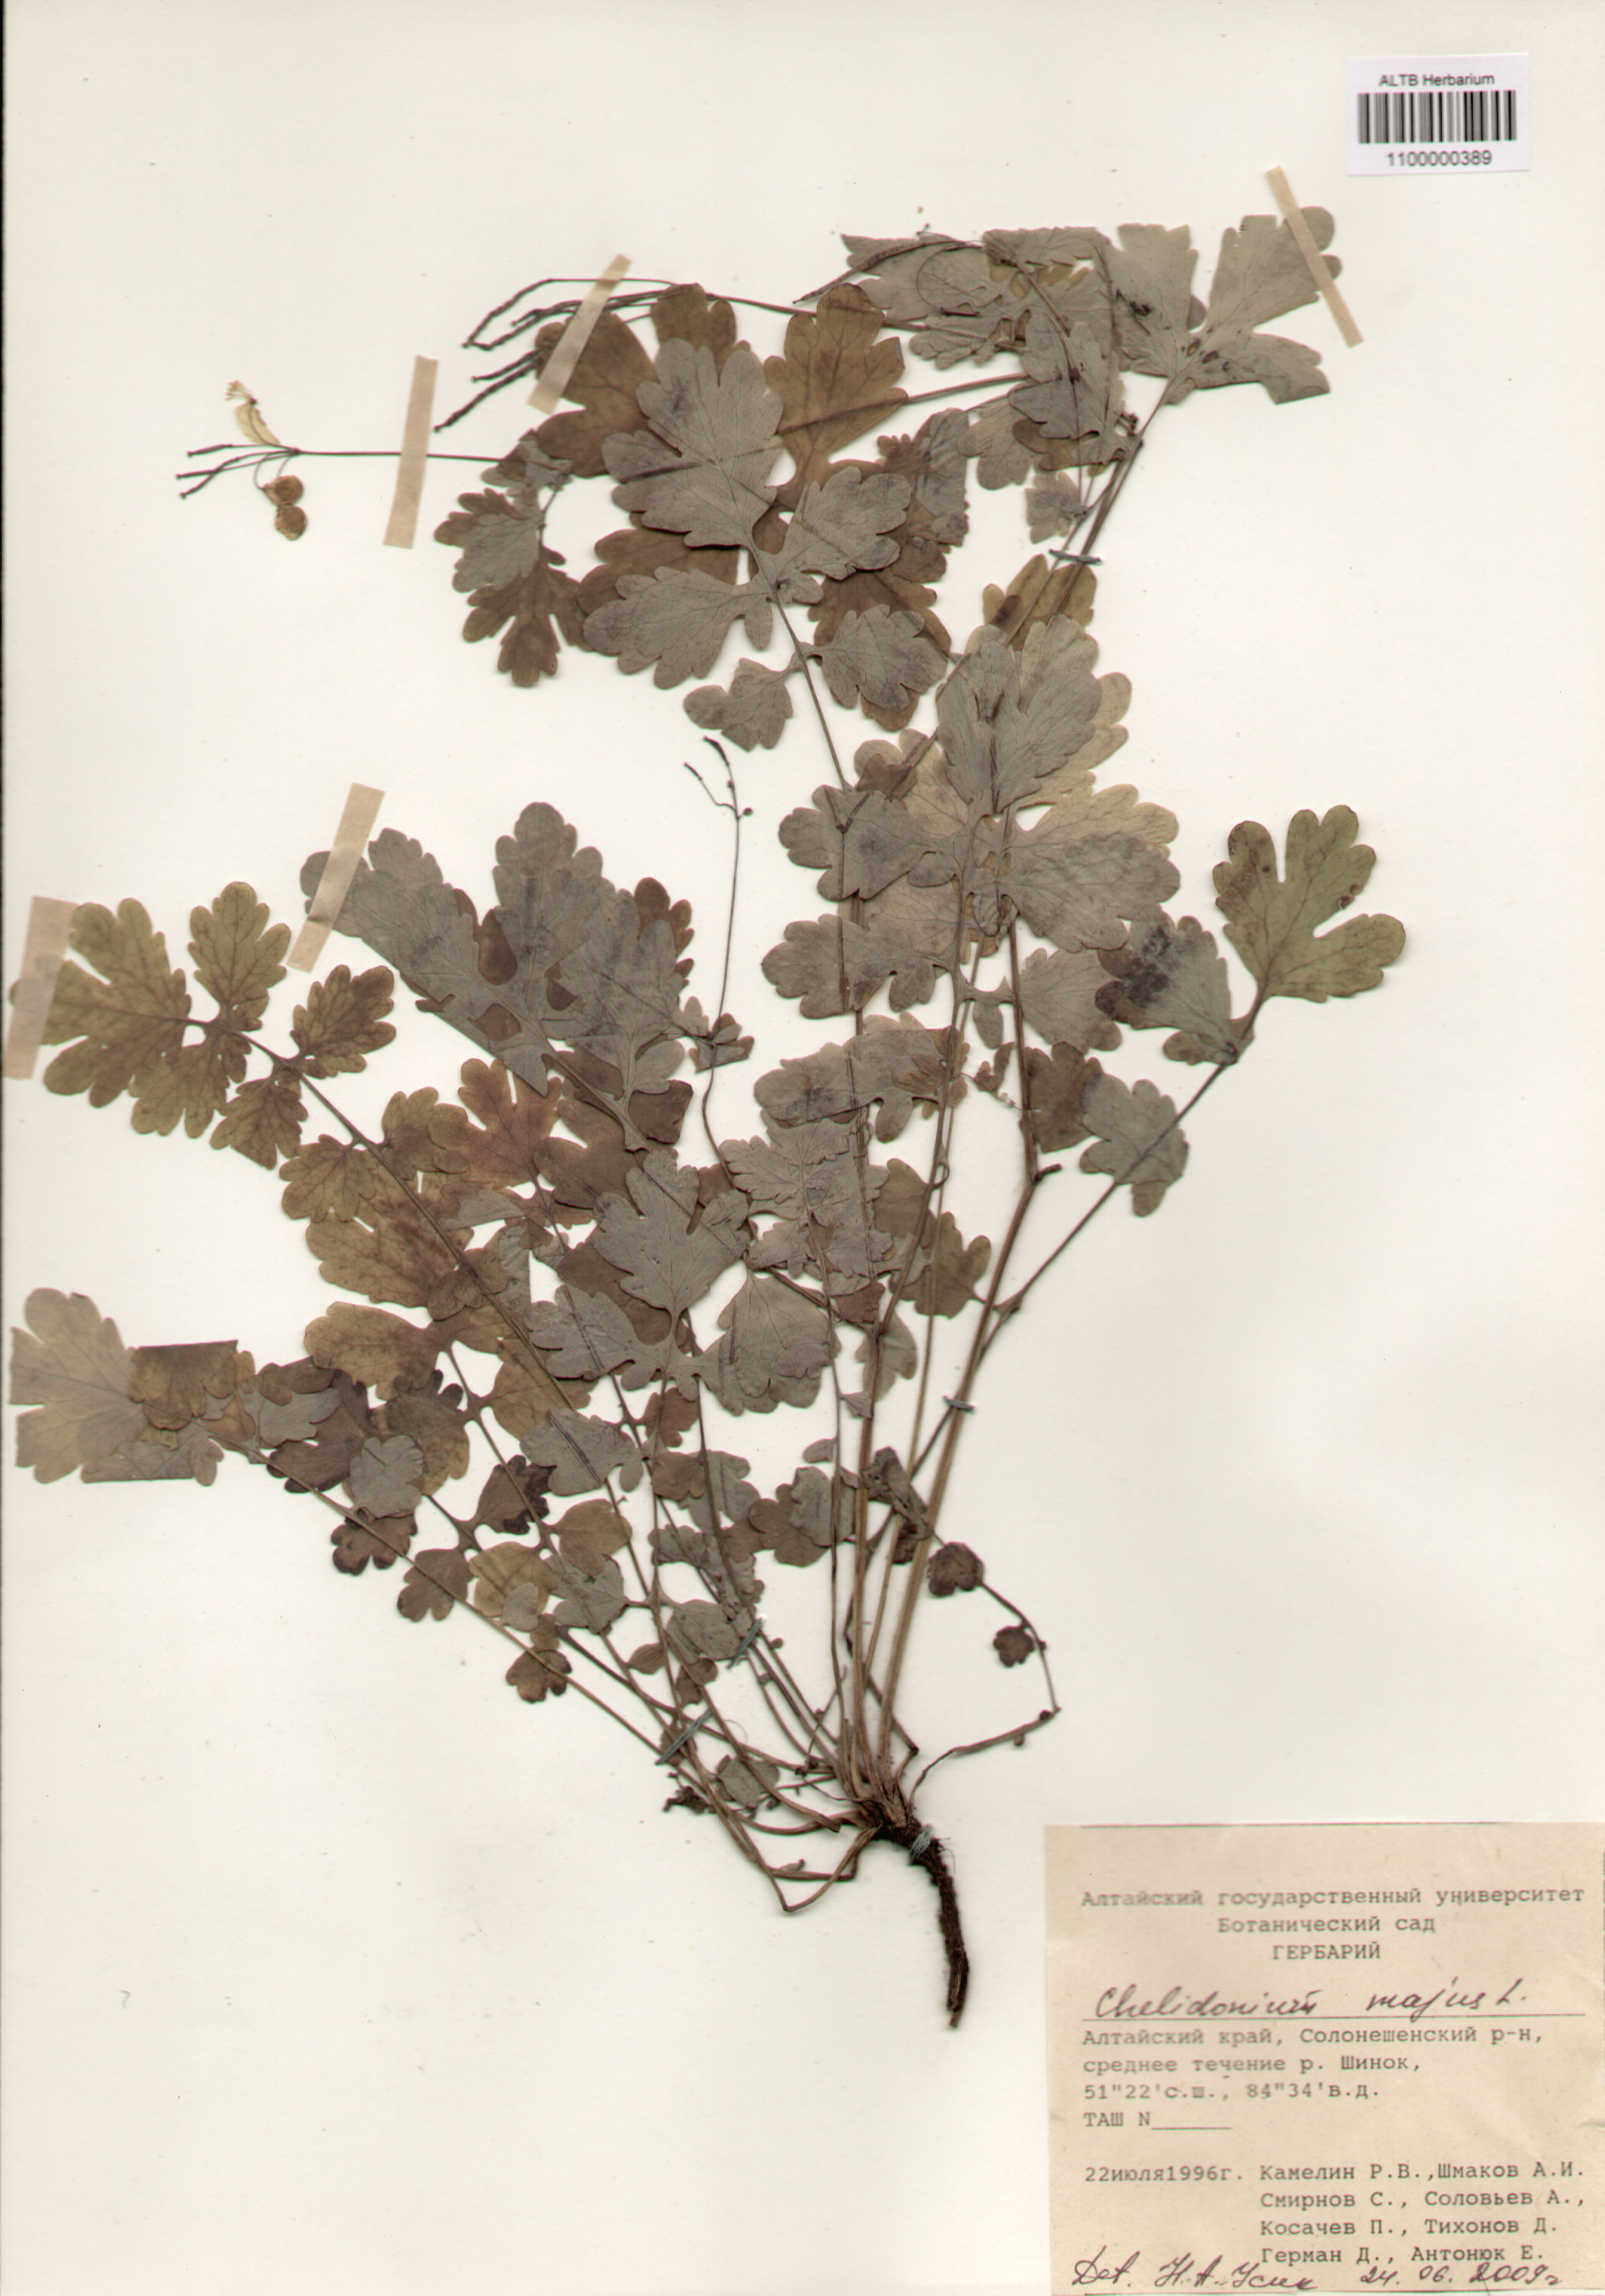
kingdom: Plantae
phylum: Tracheophyta
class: Magnoliopsida
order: Ranunculales
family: Papaveraceae
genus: Chelidonium
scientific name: Chelidonium majus
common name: Greater celandine
